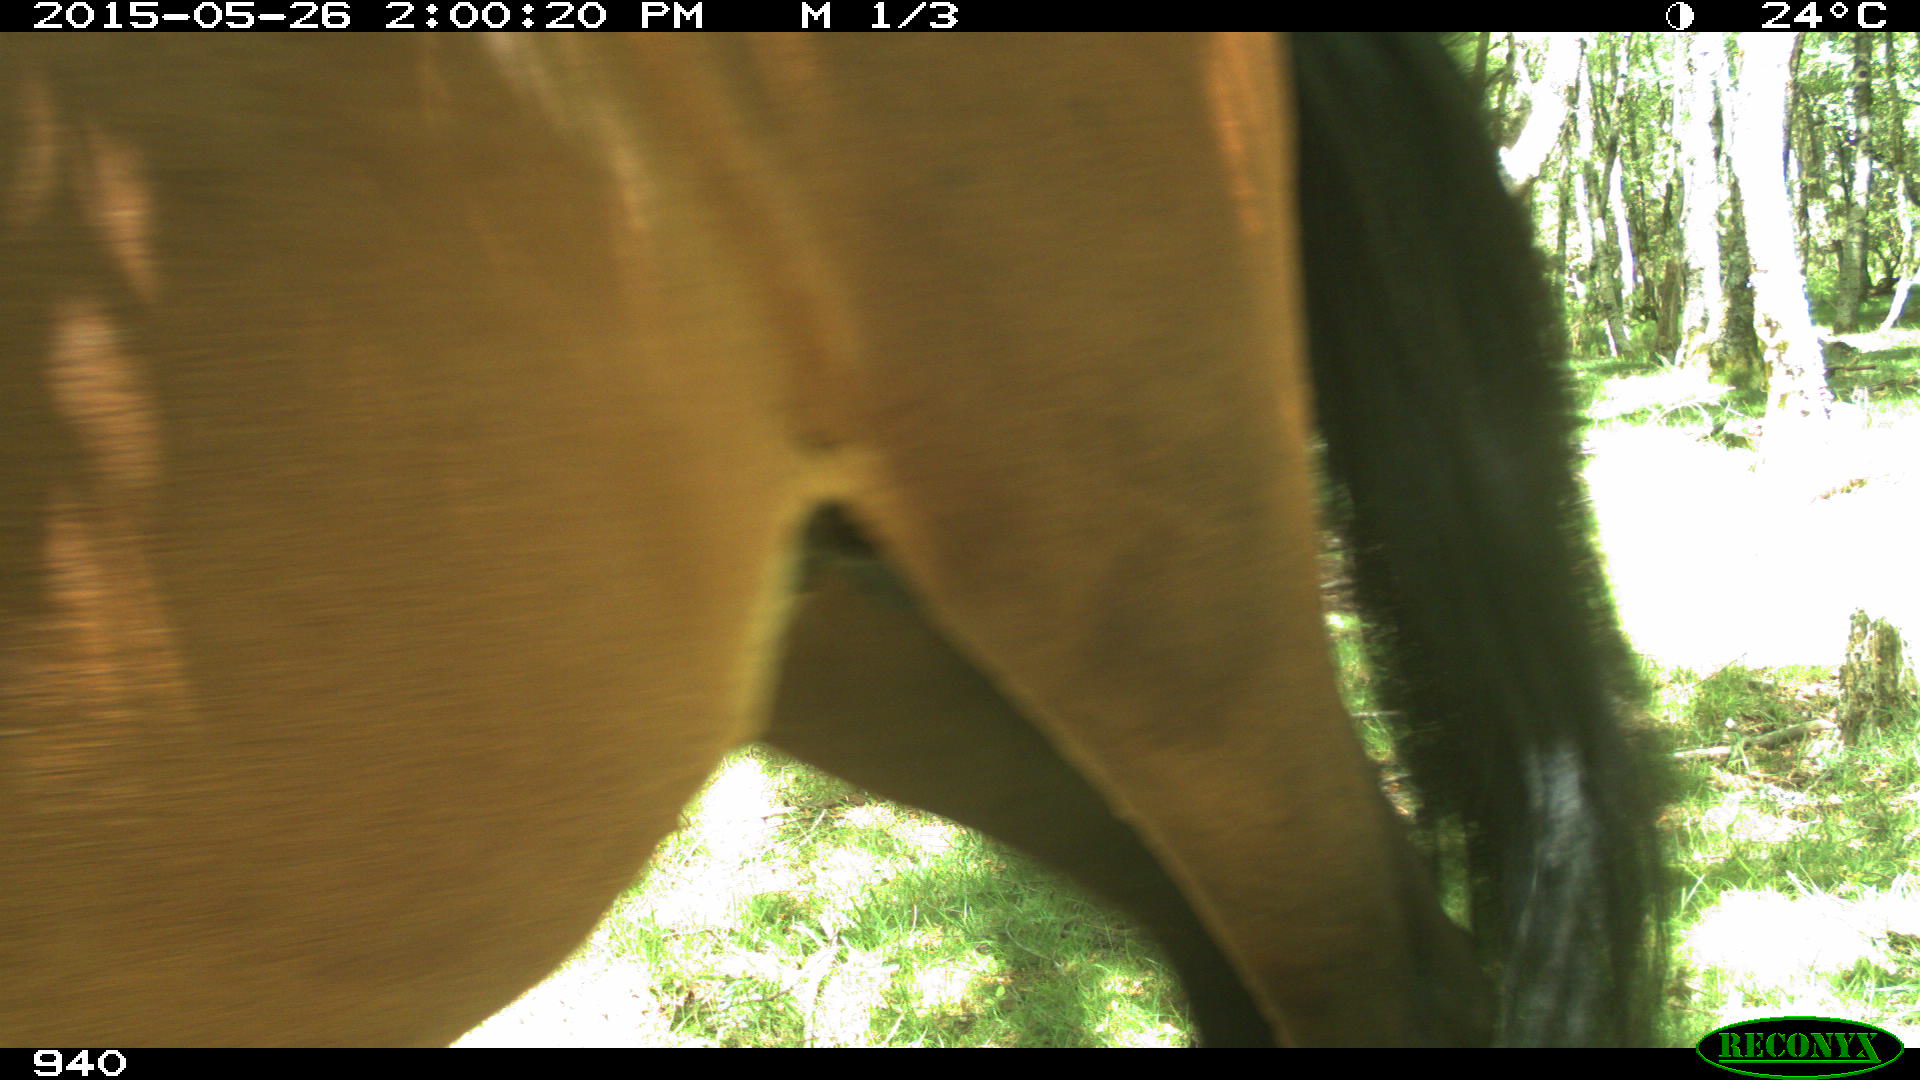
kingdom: Animalia
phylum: Chordata
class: Mammalia
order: Perissodactyla
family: Equidae
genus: Equus
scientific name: Equus caballus
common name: Horse
